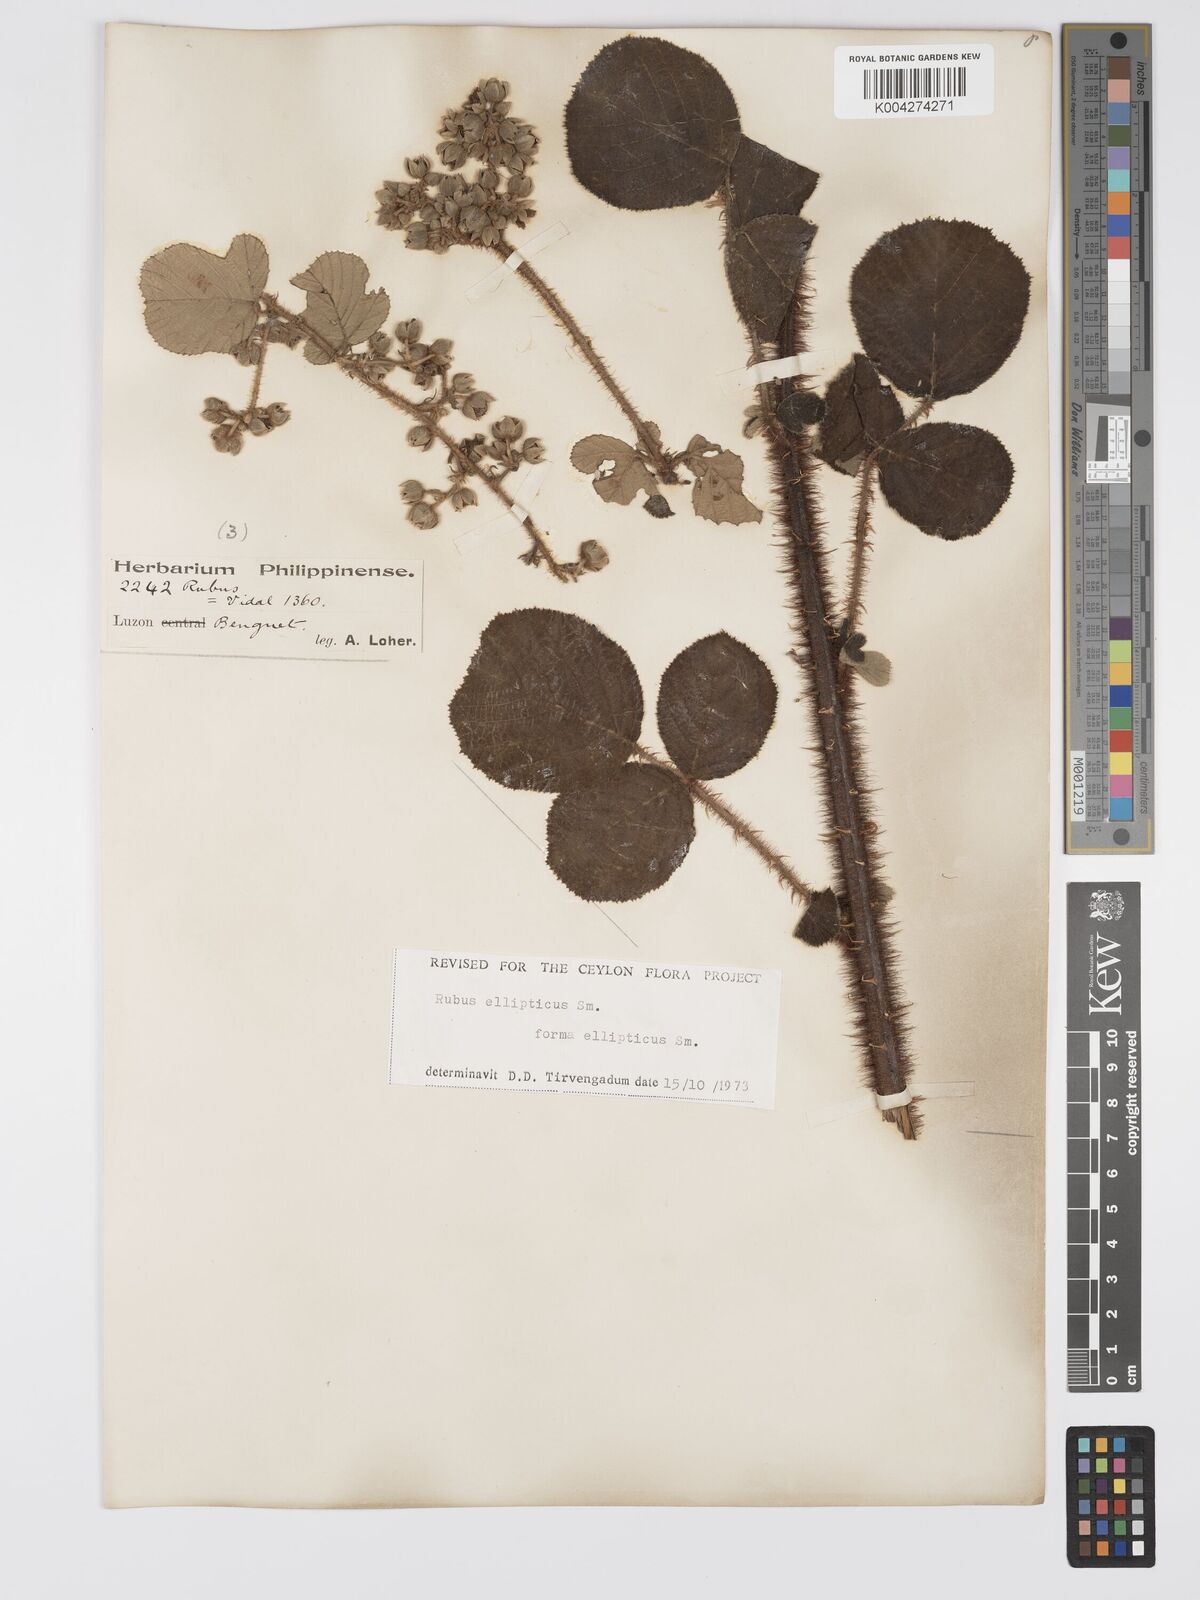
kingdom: Plantae
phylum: Tracheophyta
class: Magnoliopsida
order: Rosales
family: Rosaceae
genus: Rubus
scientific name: Rubus ellipticus
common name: Cheeseberry
